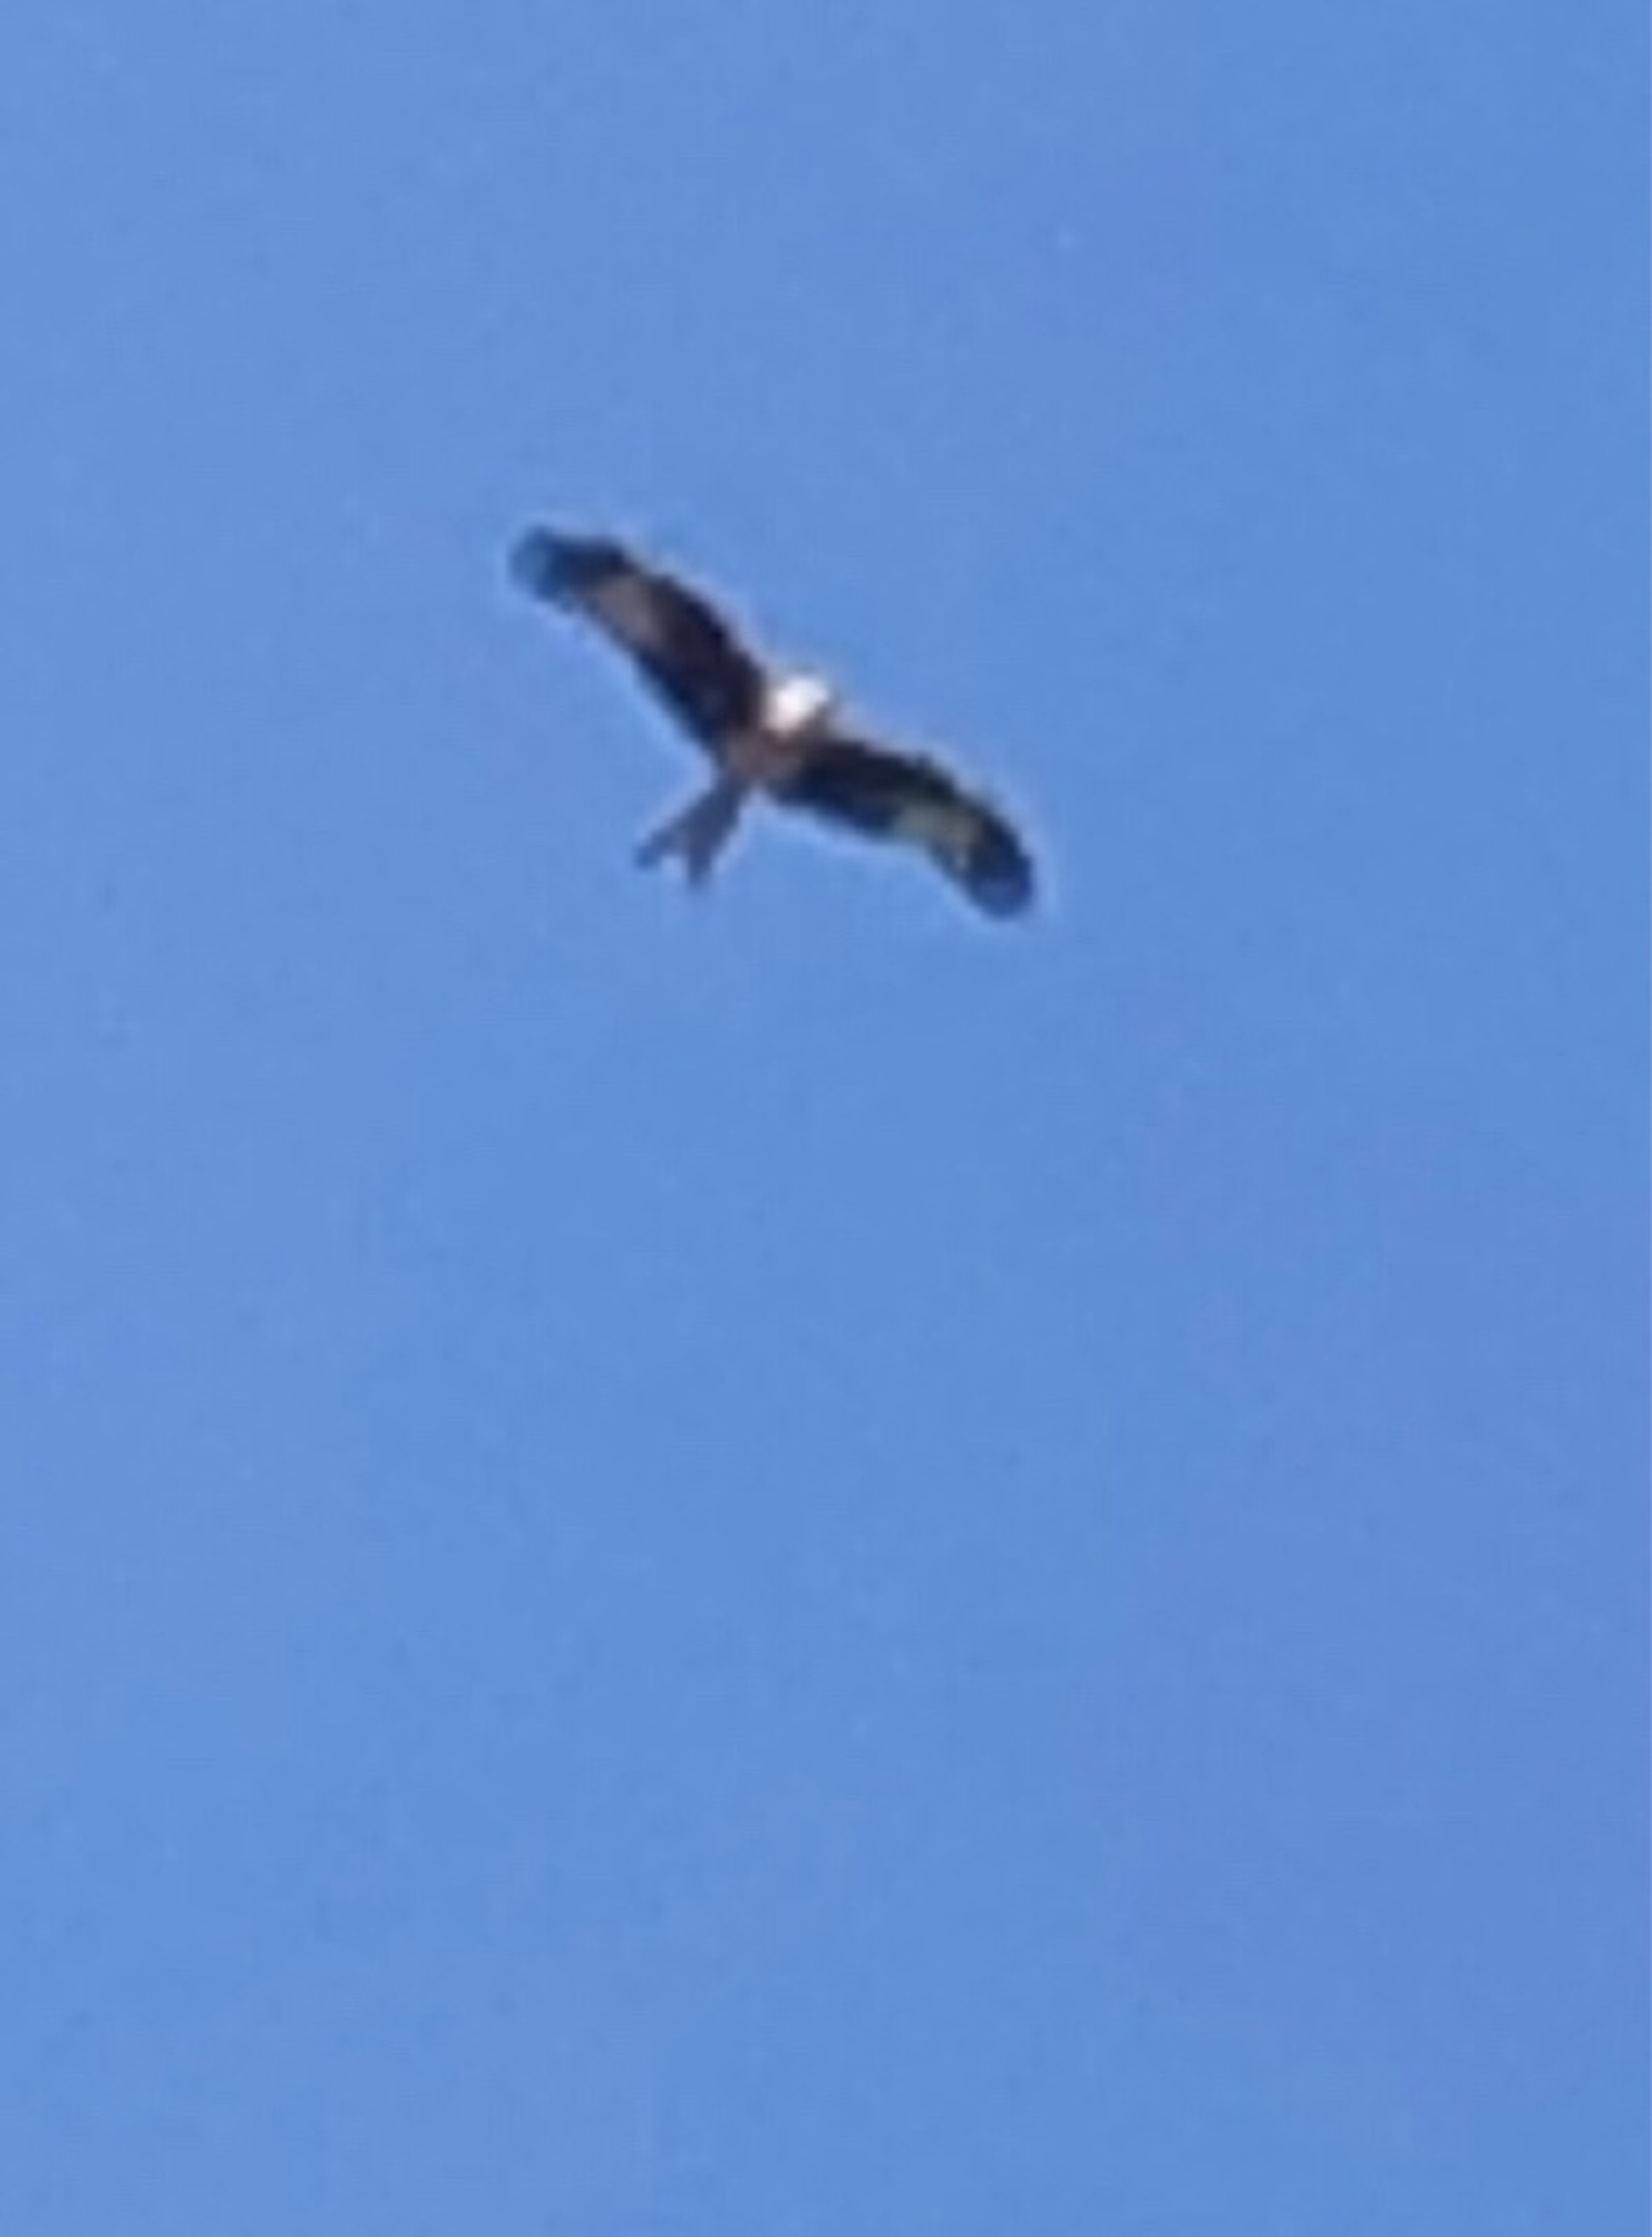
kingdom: Animalia
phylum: Chordata
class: Aves
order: Accipitriformes
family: Accipitridae
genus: Milvus
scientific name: Milvus milvus
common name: Rød glente
